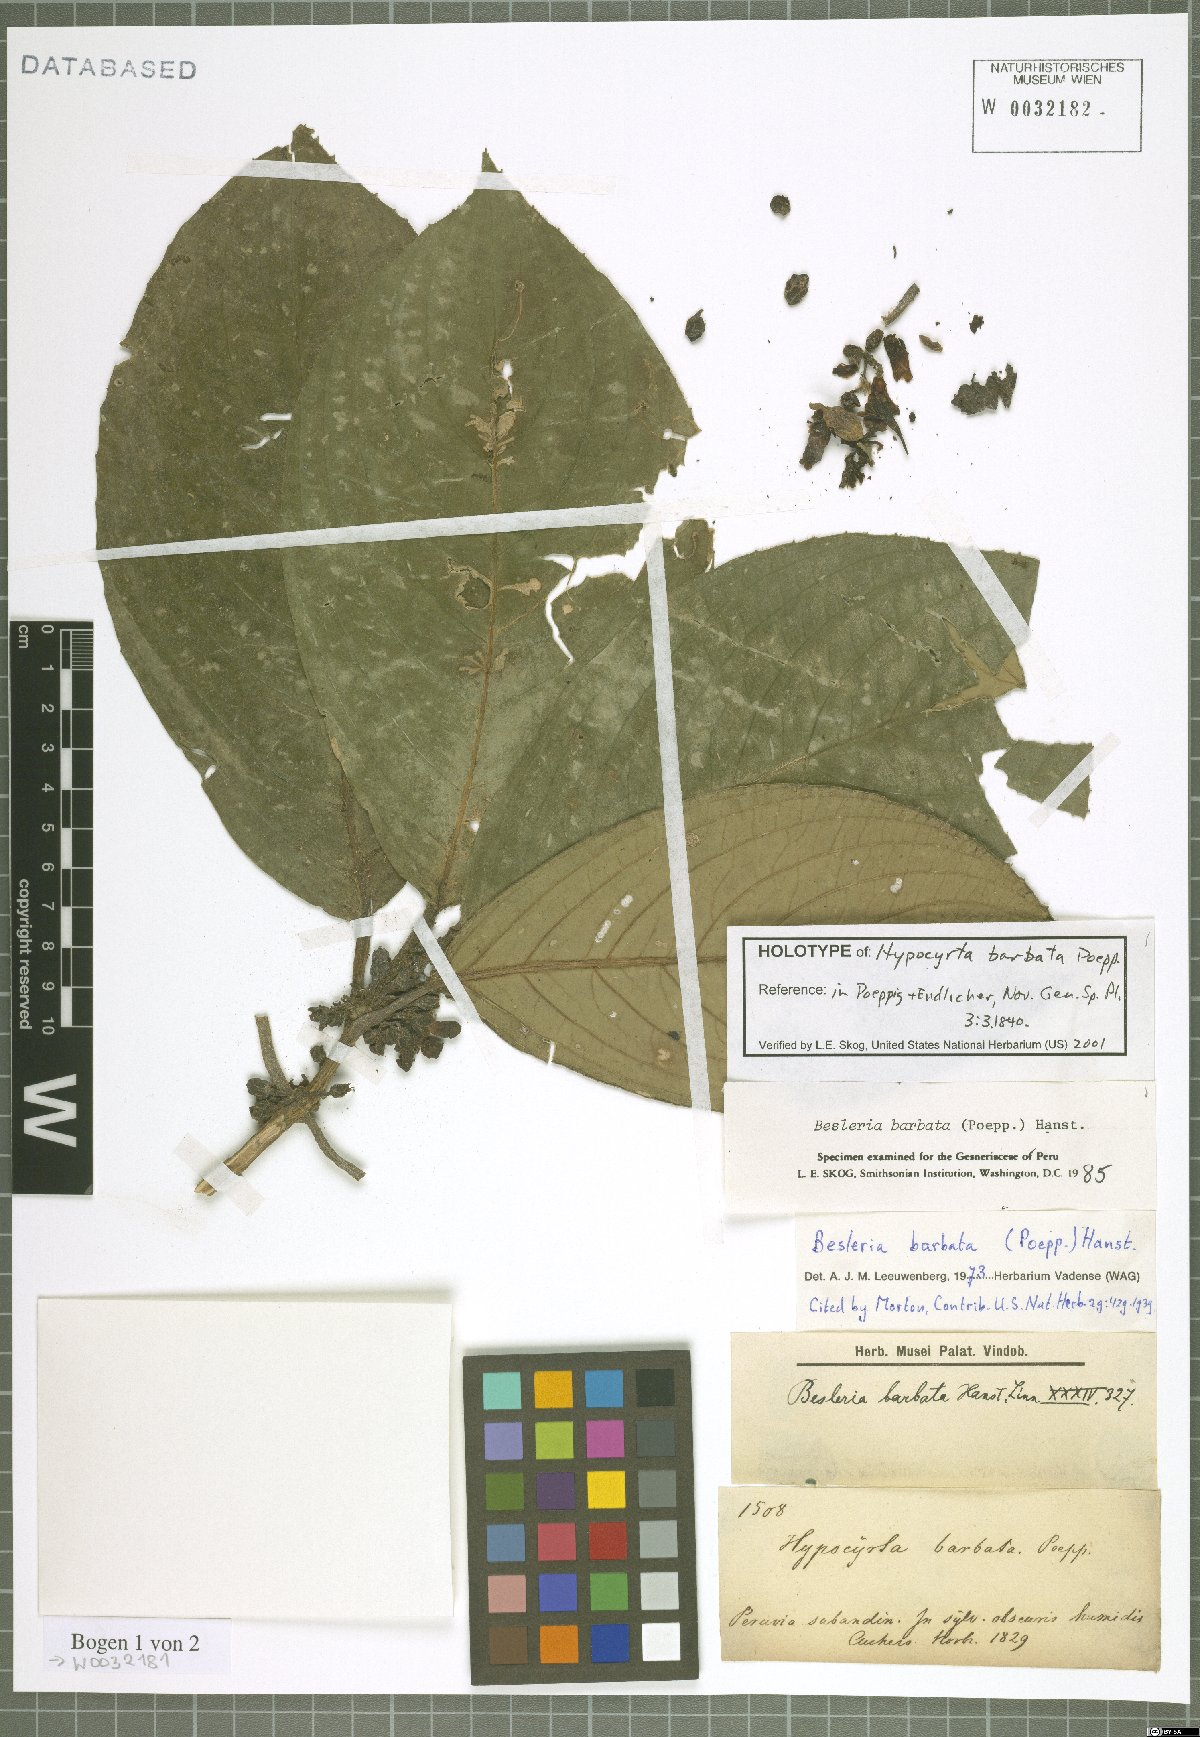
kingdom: Plantae
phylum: Tracheophyta
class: Magnoliopsida
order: Lamiales
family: Gesneriaceae
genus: Besleria
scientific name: Besleria barbata
